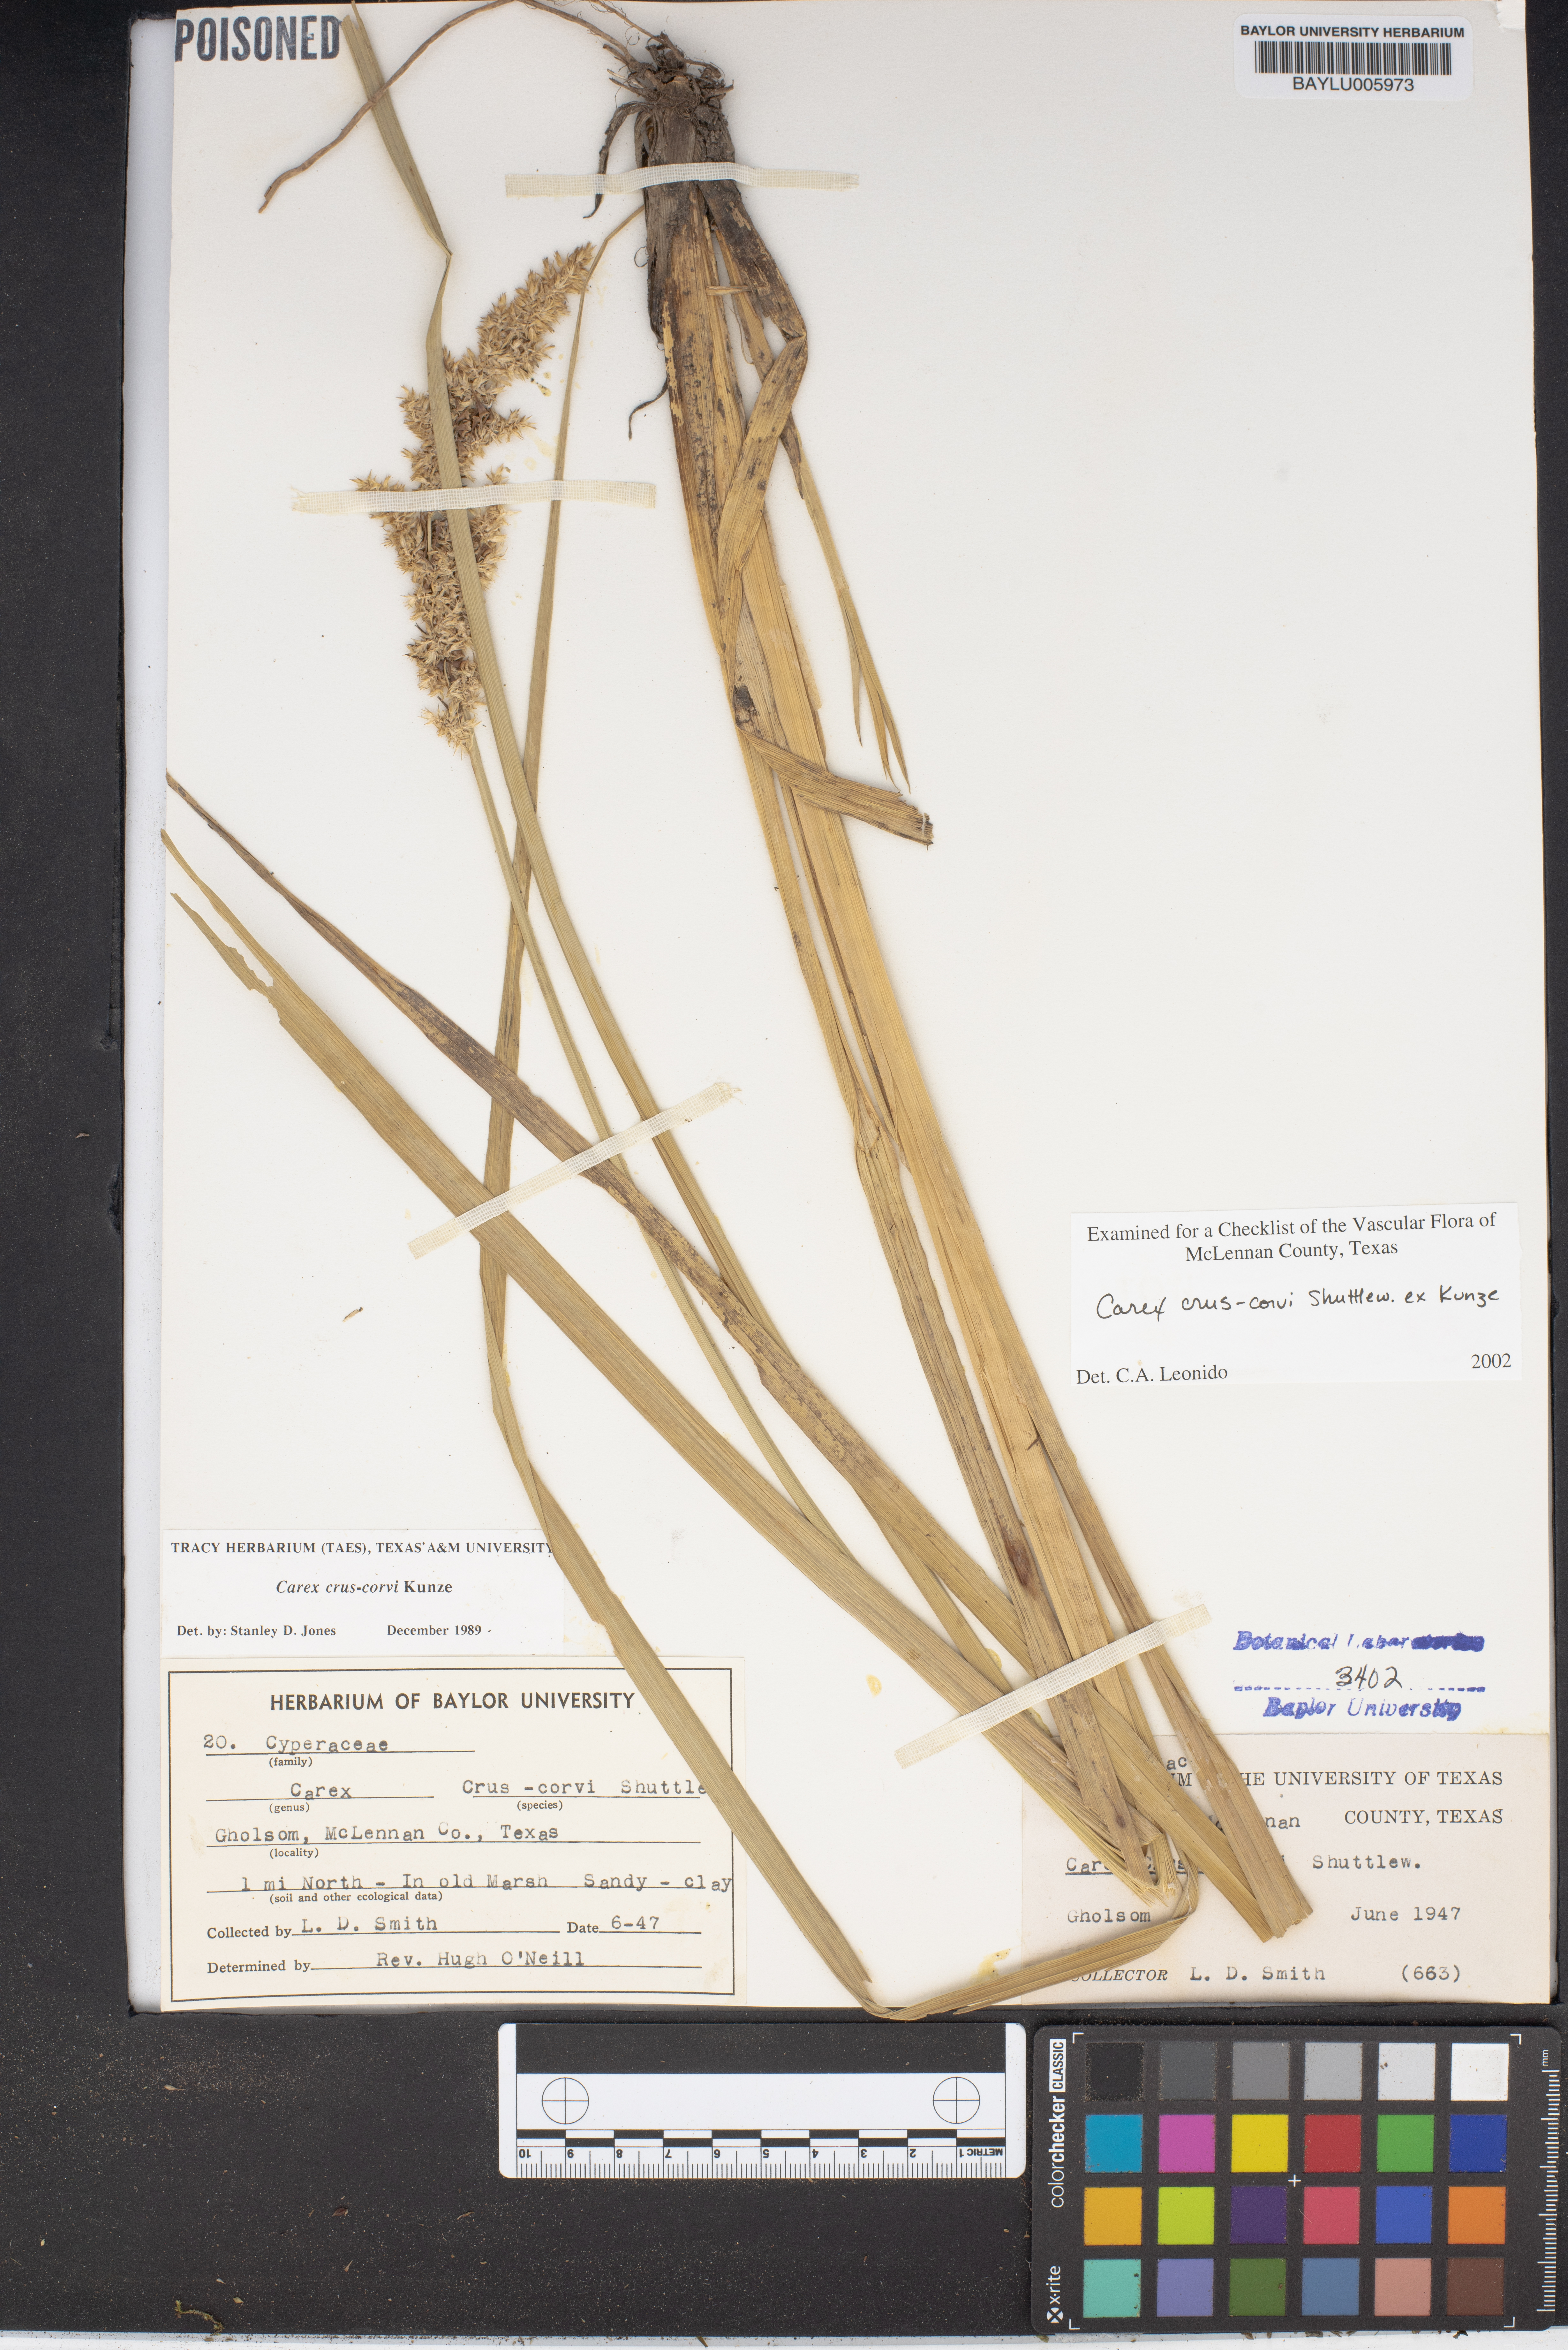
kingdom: Plantae
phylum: Tracheophyta
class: Liliopsida
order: Poales
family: Cyperaceae
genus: Carex
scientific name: Carex crus-corvi
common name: Crow-spur sedge
